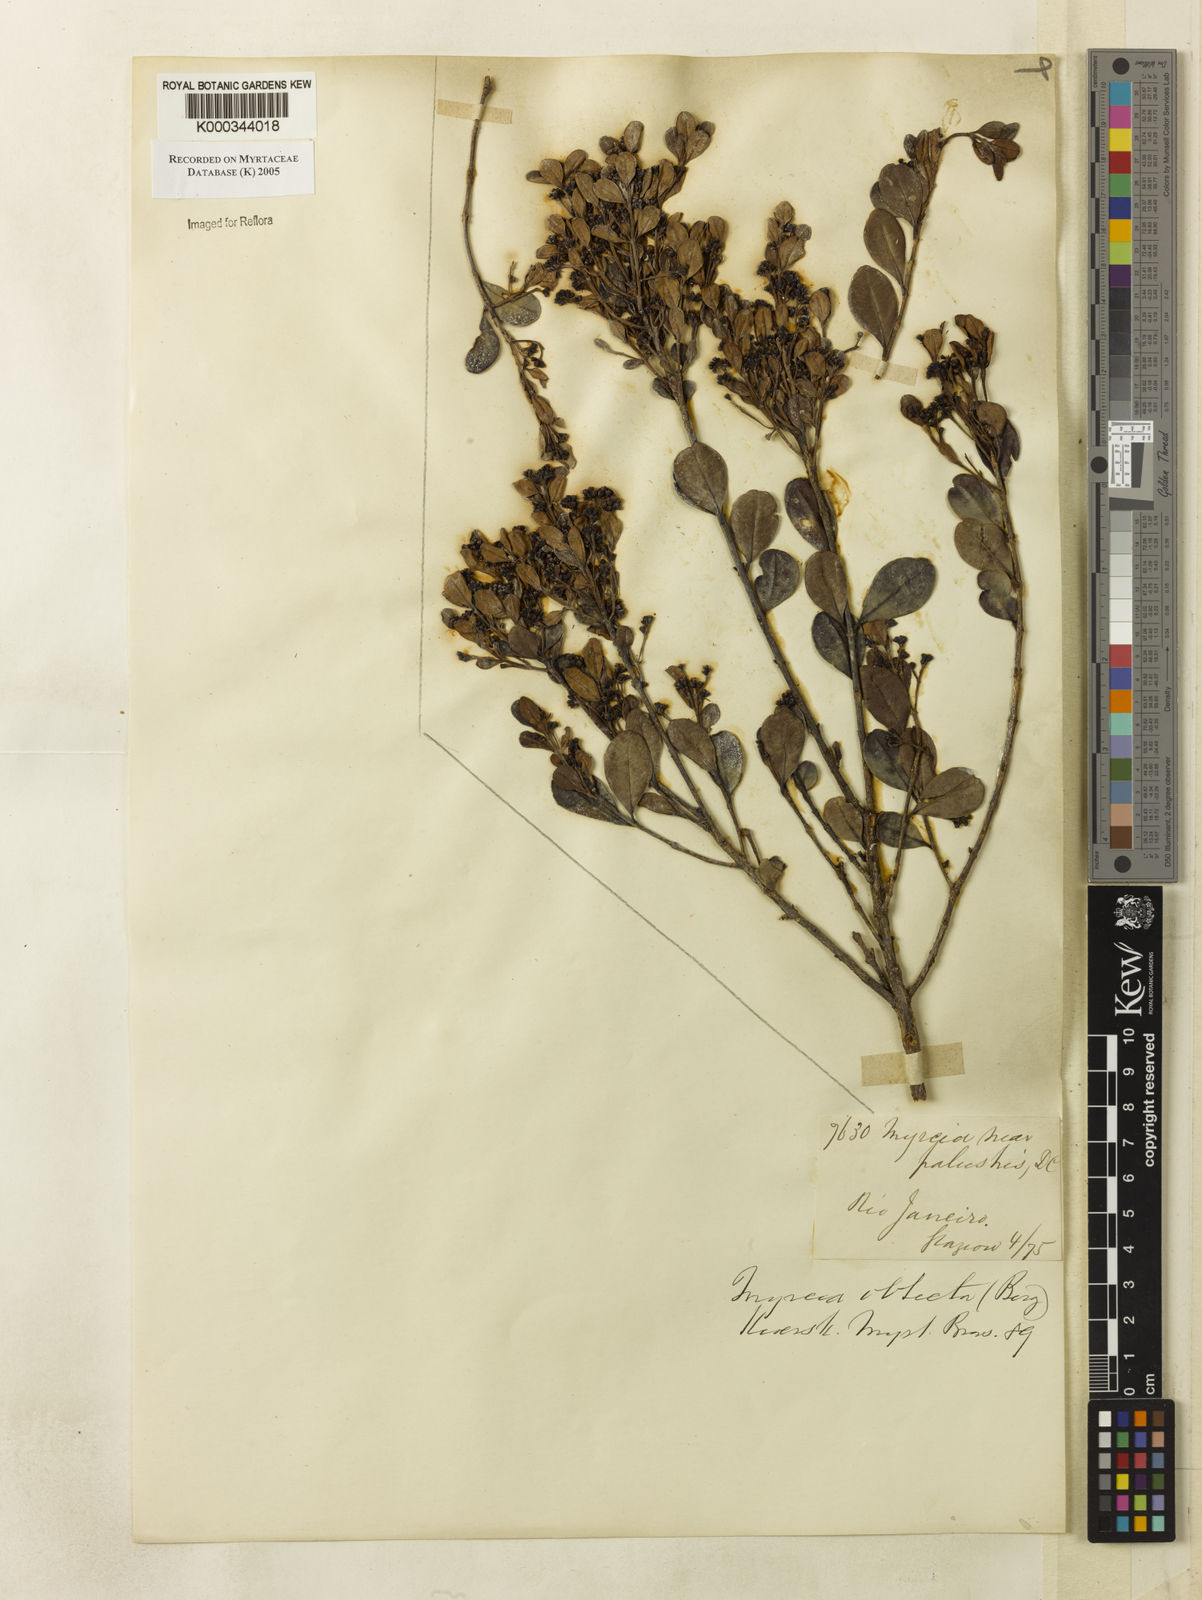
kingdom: Plantae
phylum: Tracheophyta
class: Magnoliopsida
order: Myrtales
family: Myrtaceae
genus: Myrcia
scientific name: Myrcia guianensis
